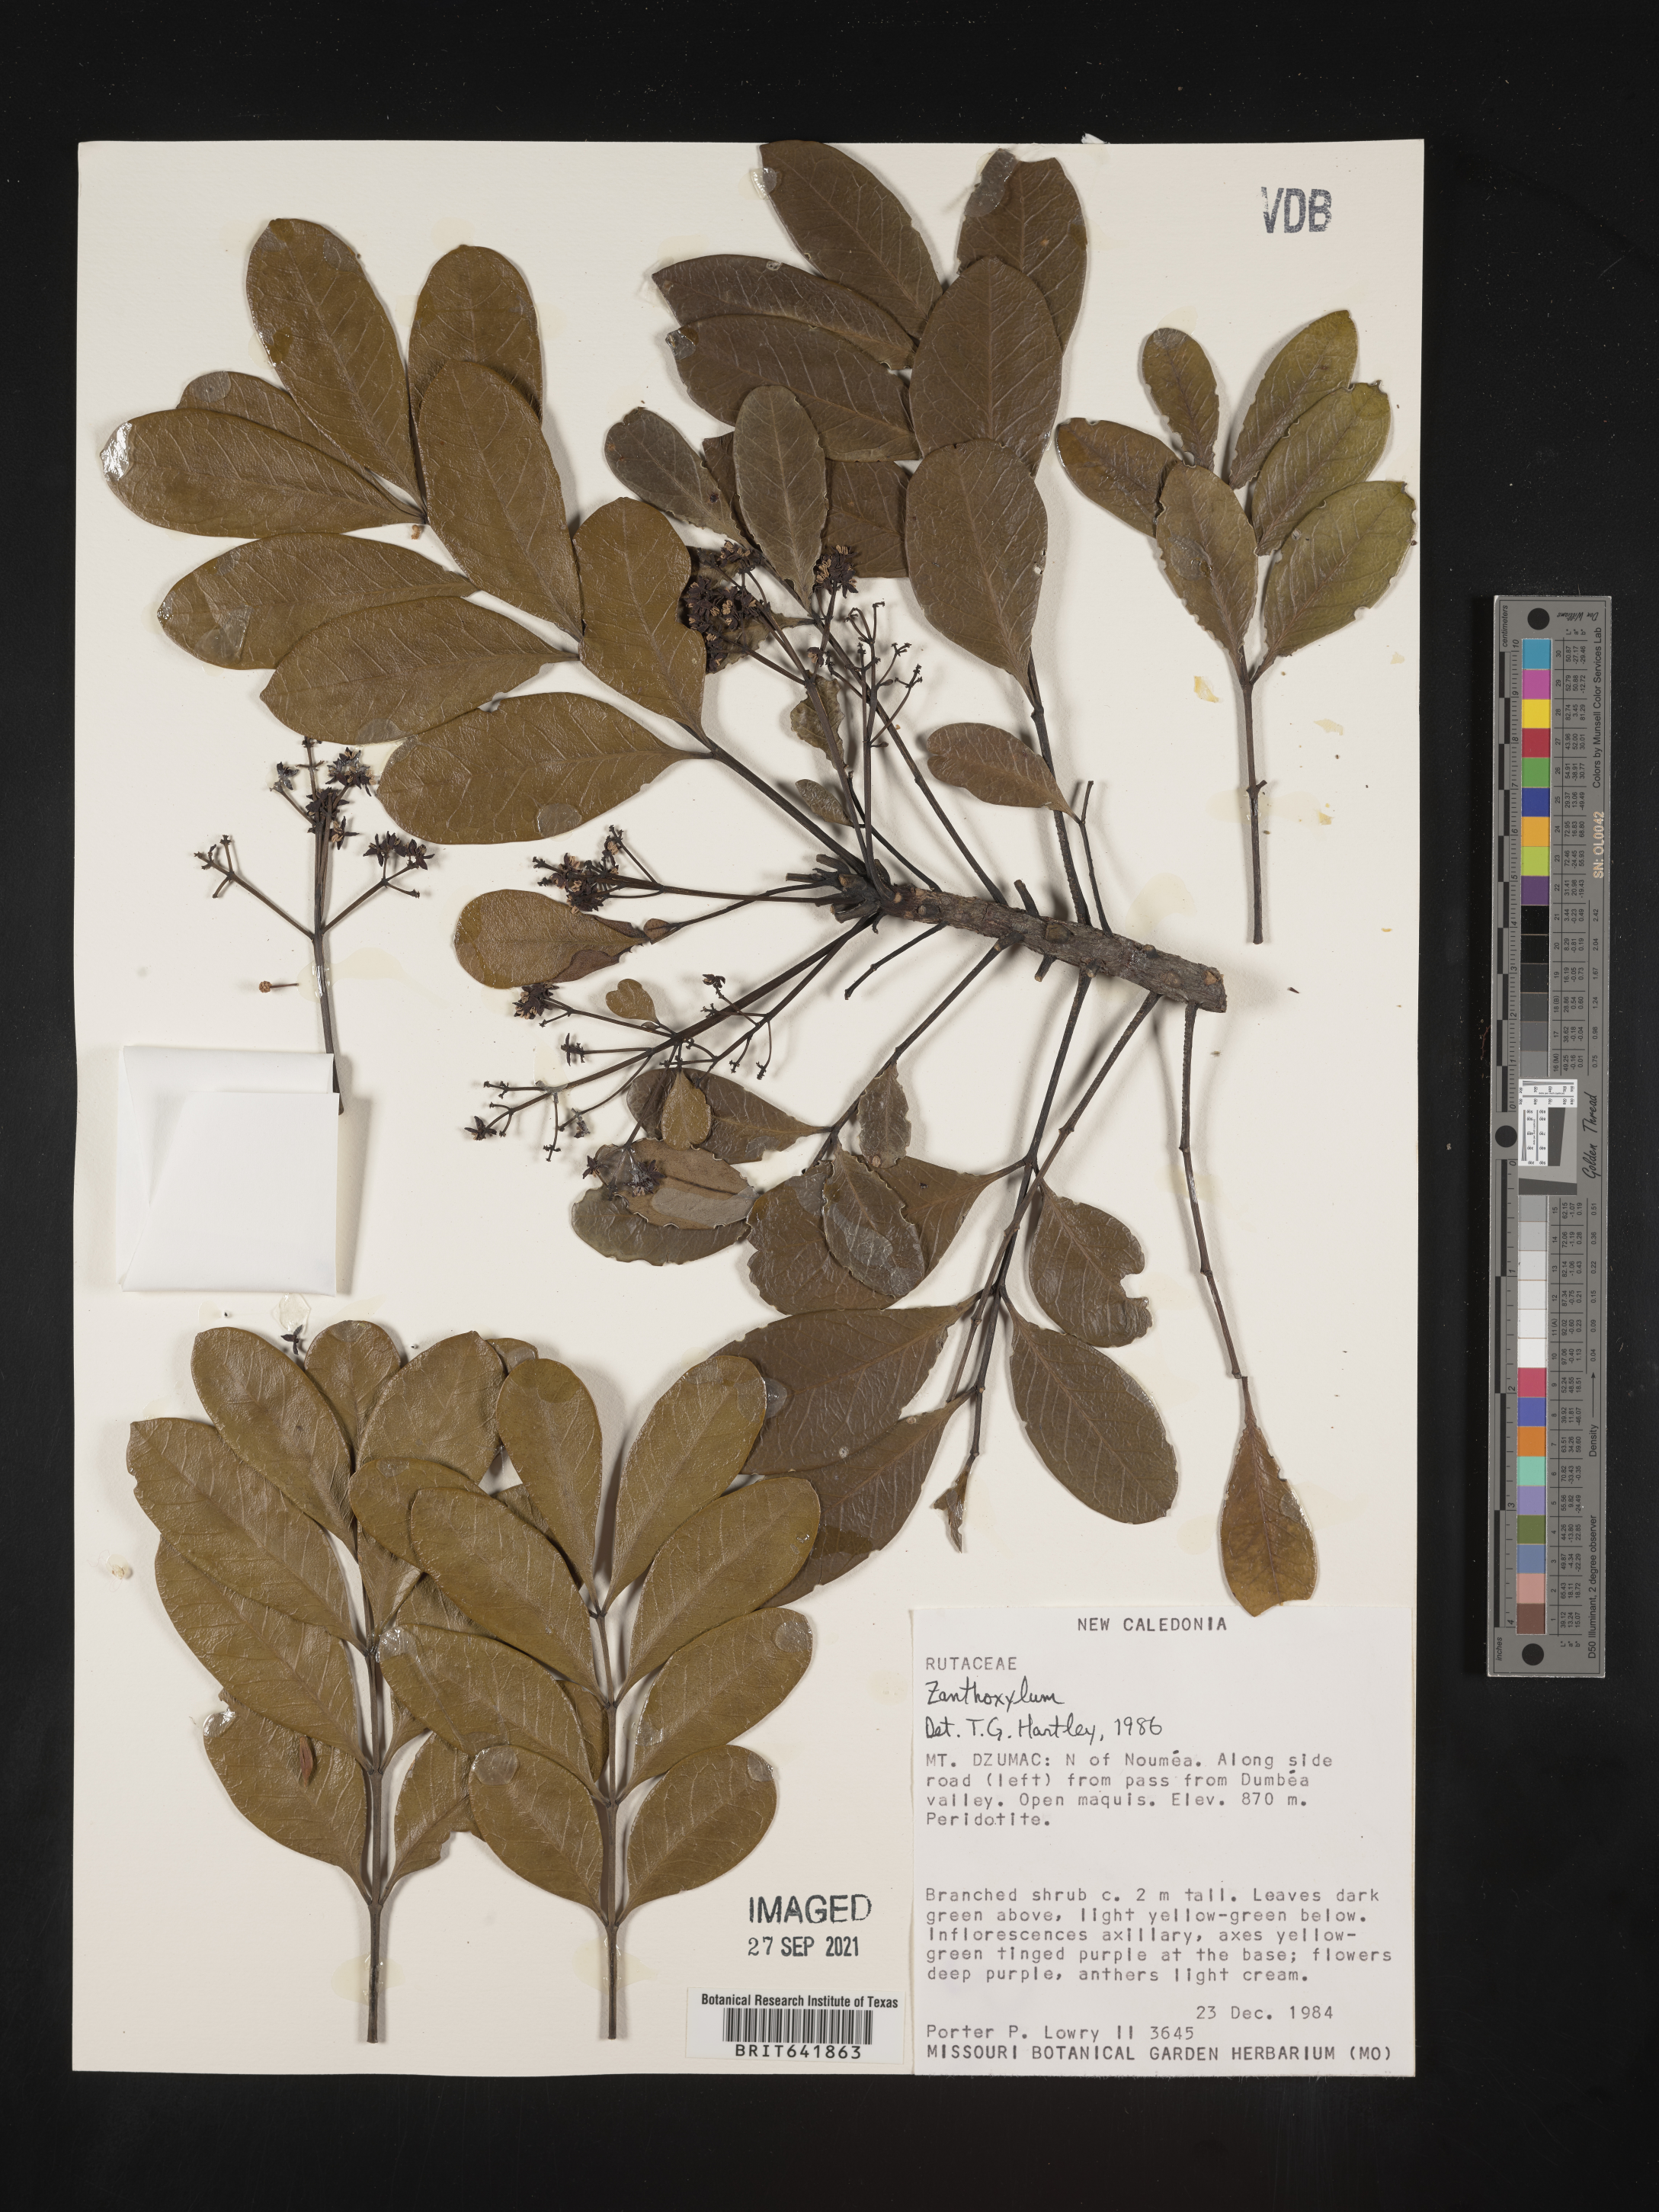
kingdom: Plantae
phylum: Tracheophyta
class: Magnoliopsida
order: Sapindales
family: Rutaceae
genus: Zanthoxylum
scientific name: Zanthoxylum
